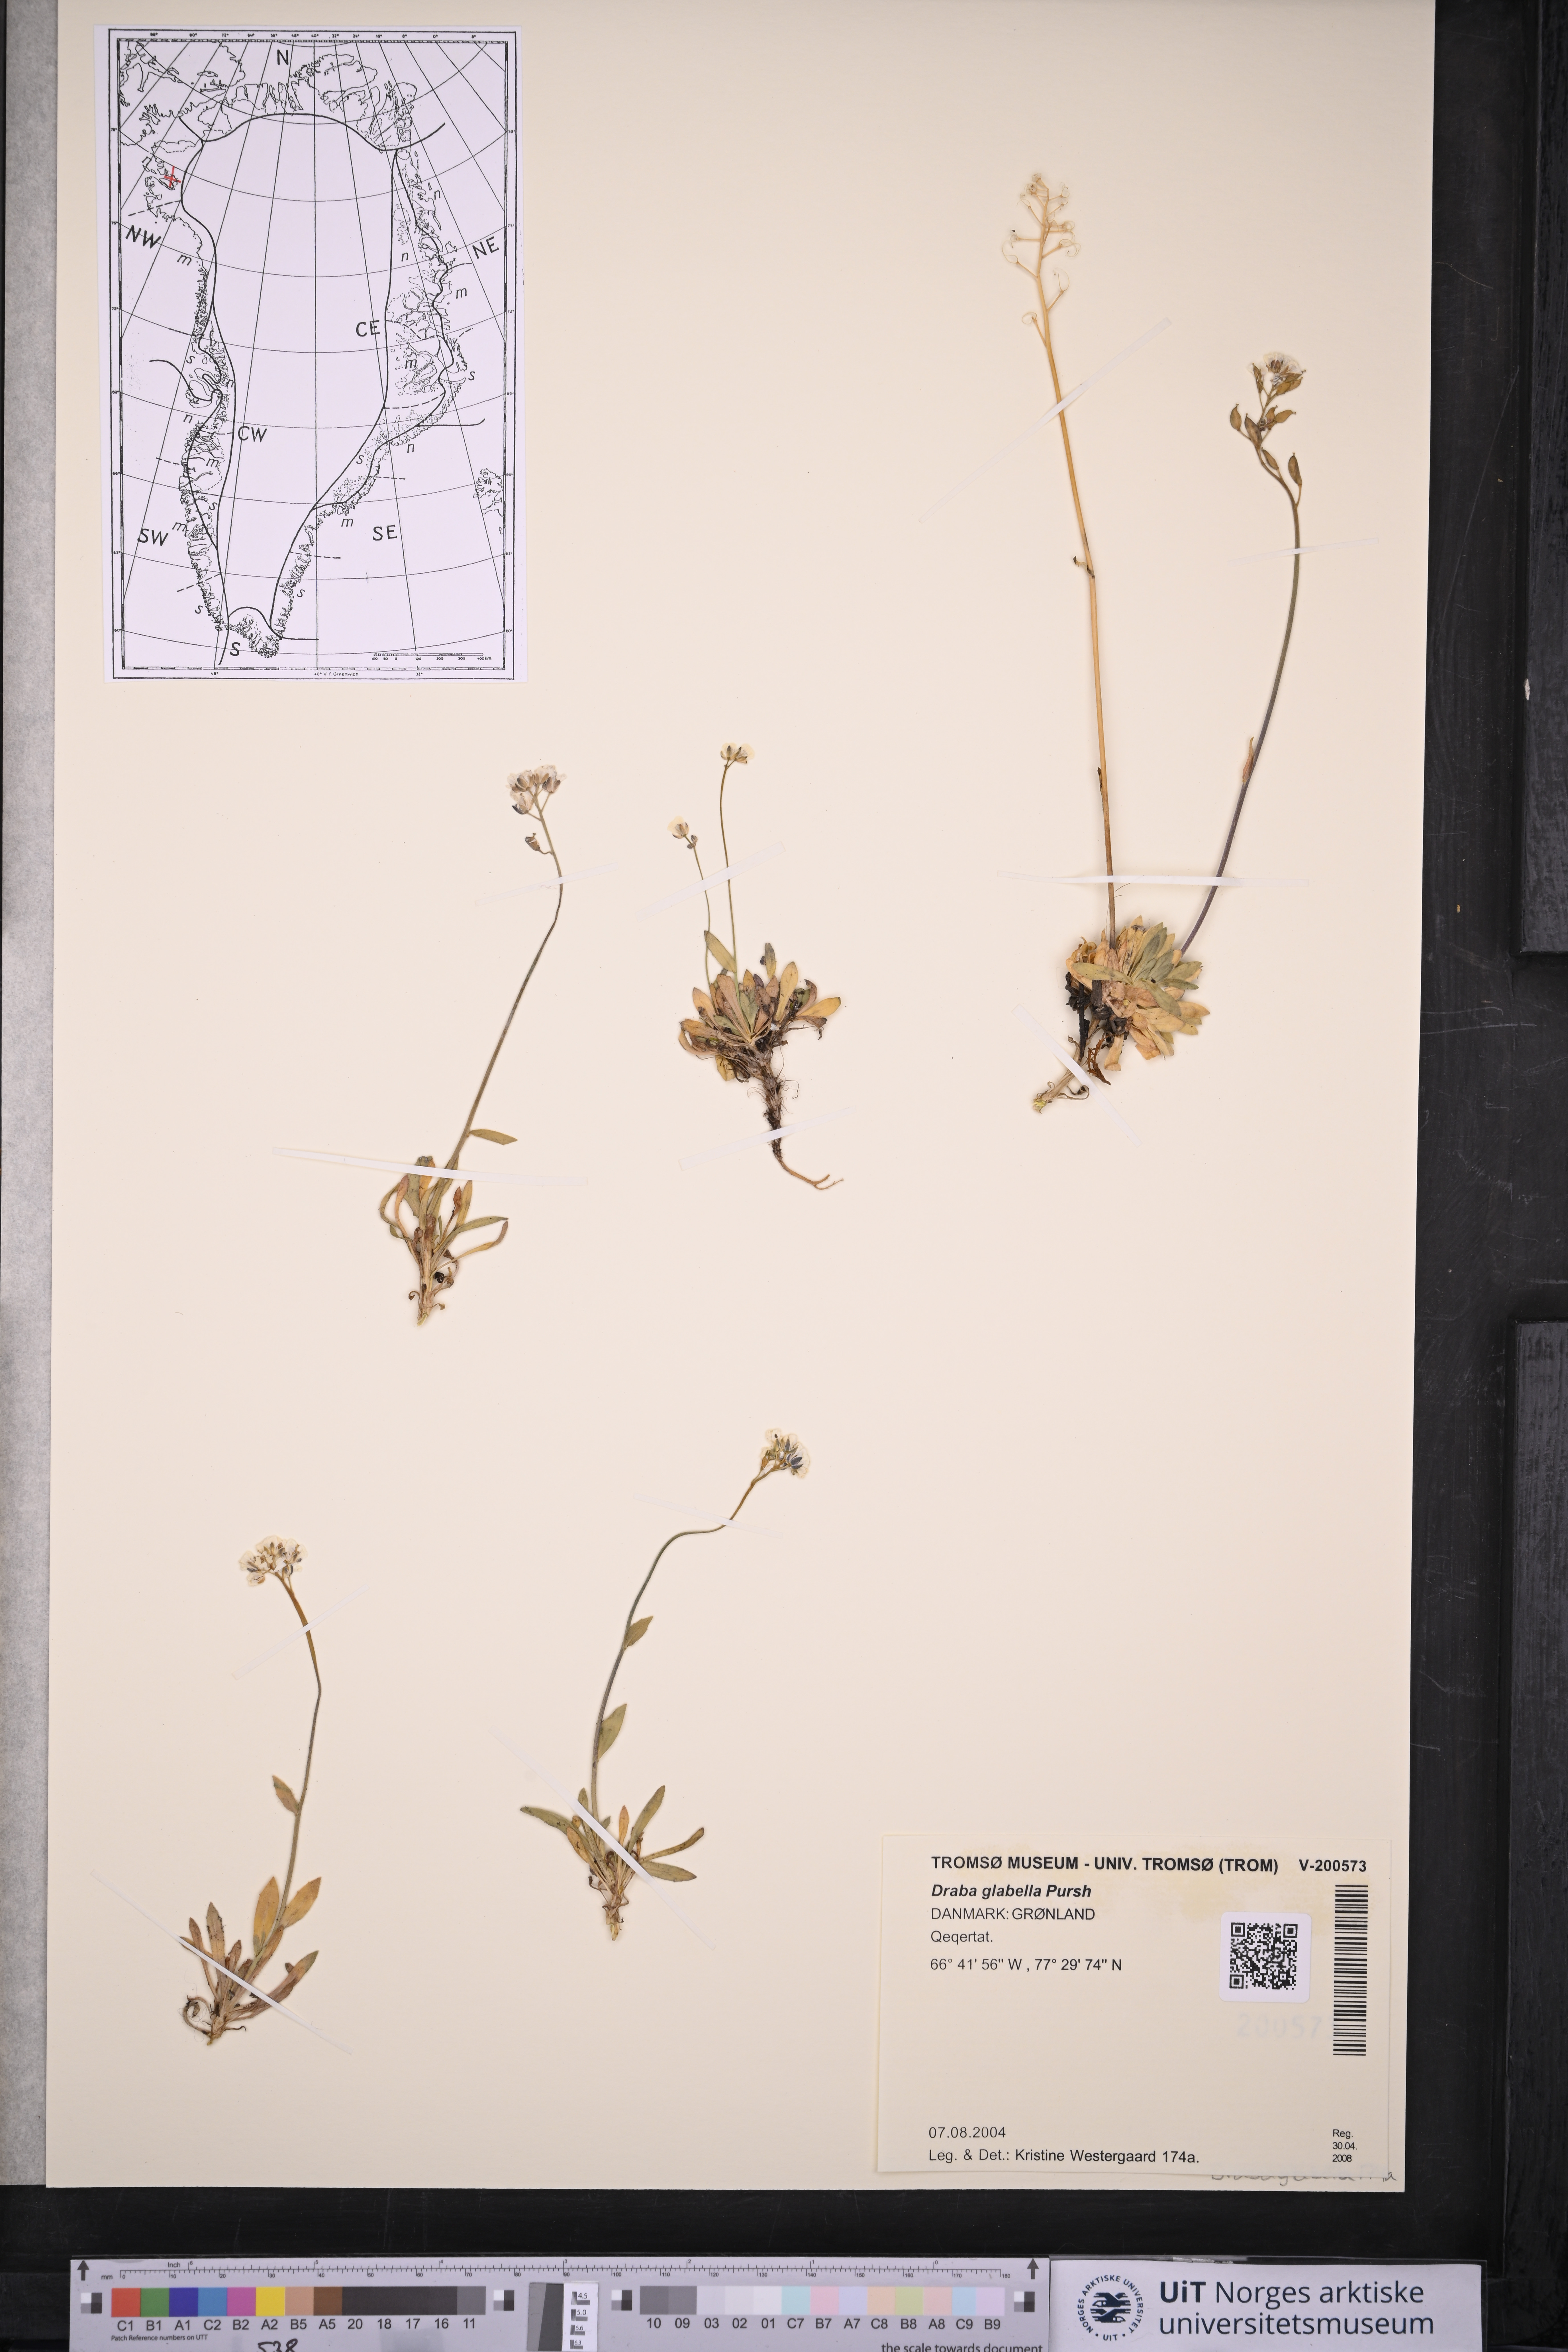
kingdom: Plantae
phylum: Tracheophyta
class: Magnoliopsida
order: Brassicales
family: Brassicaceae
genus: Draba
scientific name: Draba glabella
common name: Glaucous draba
